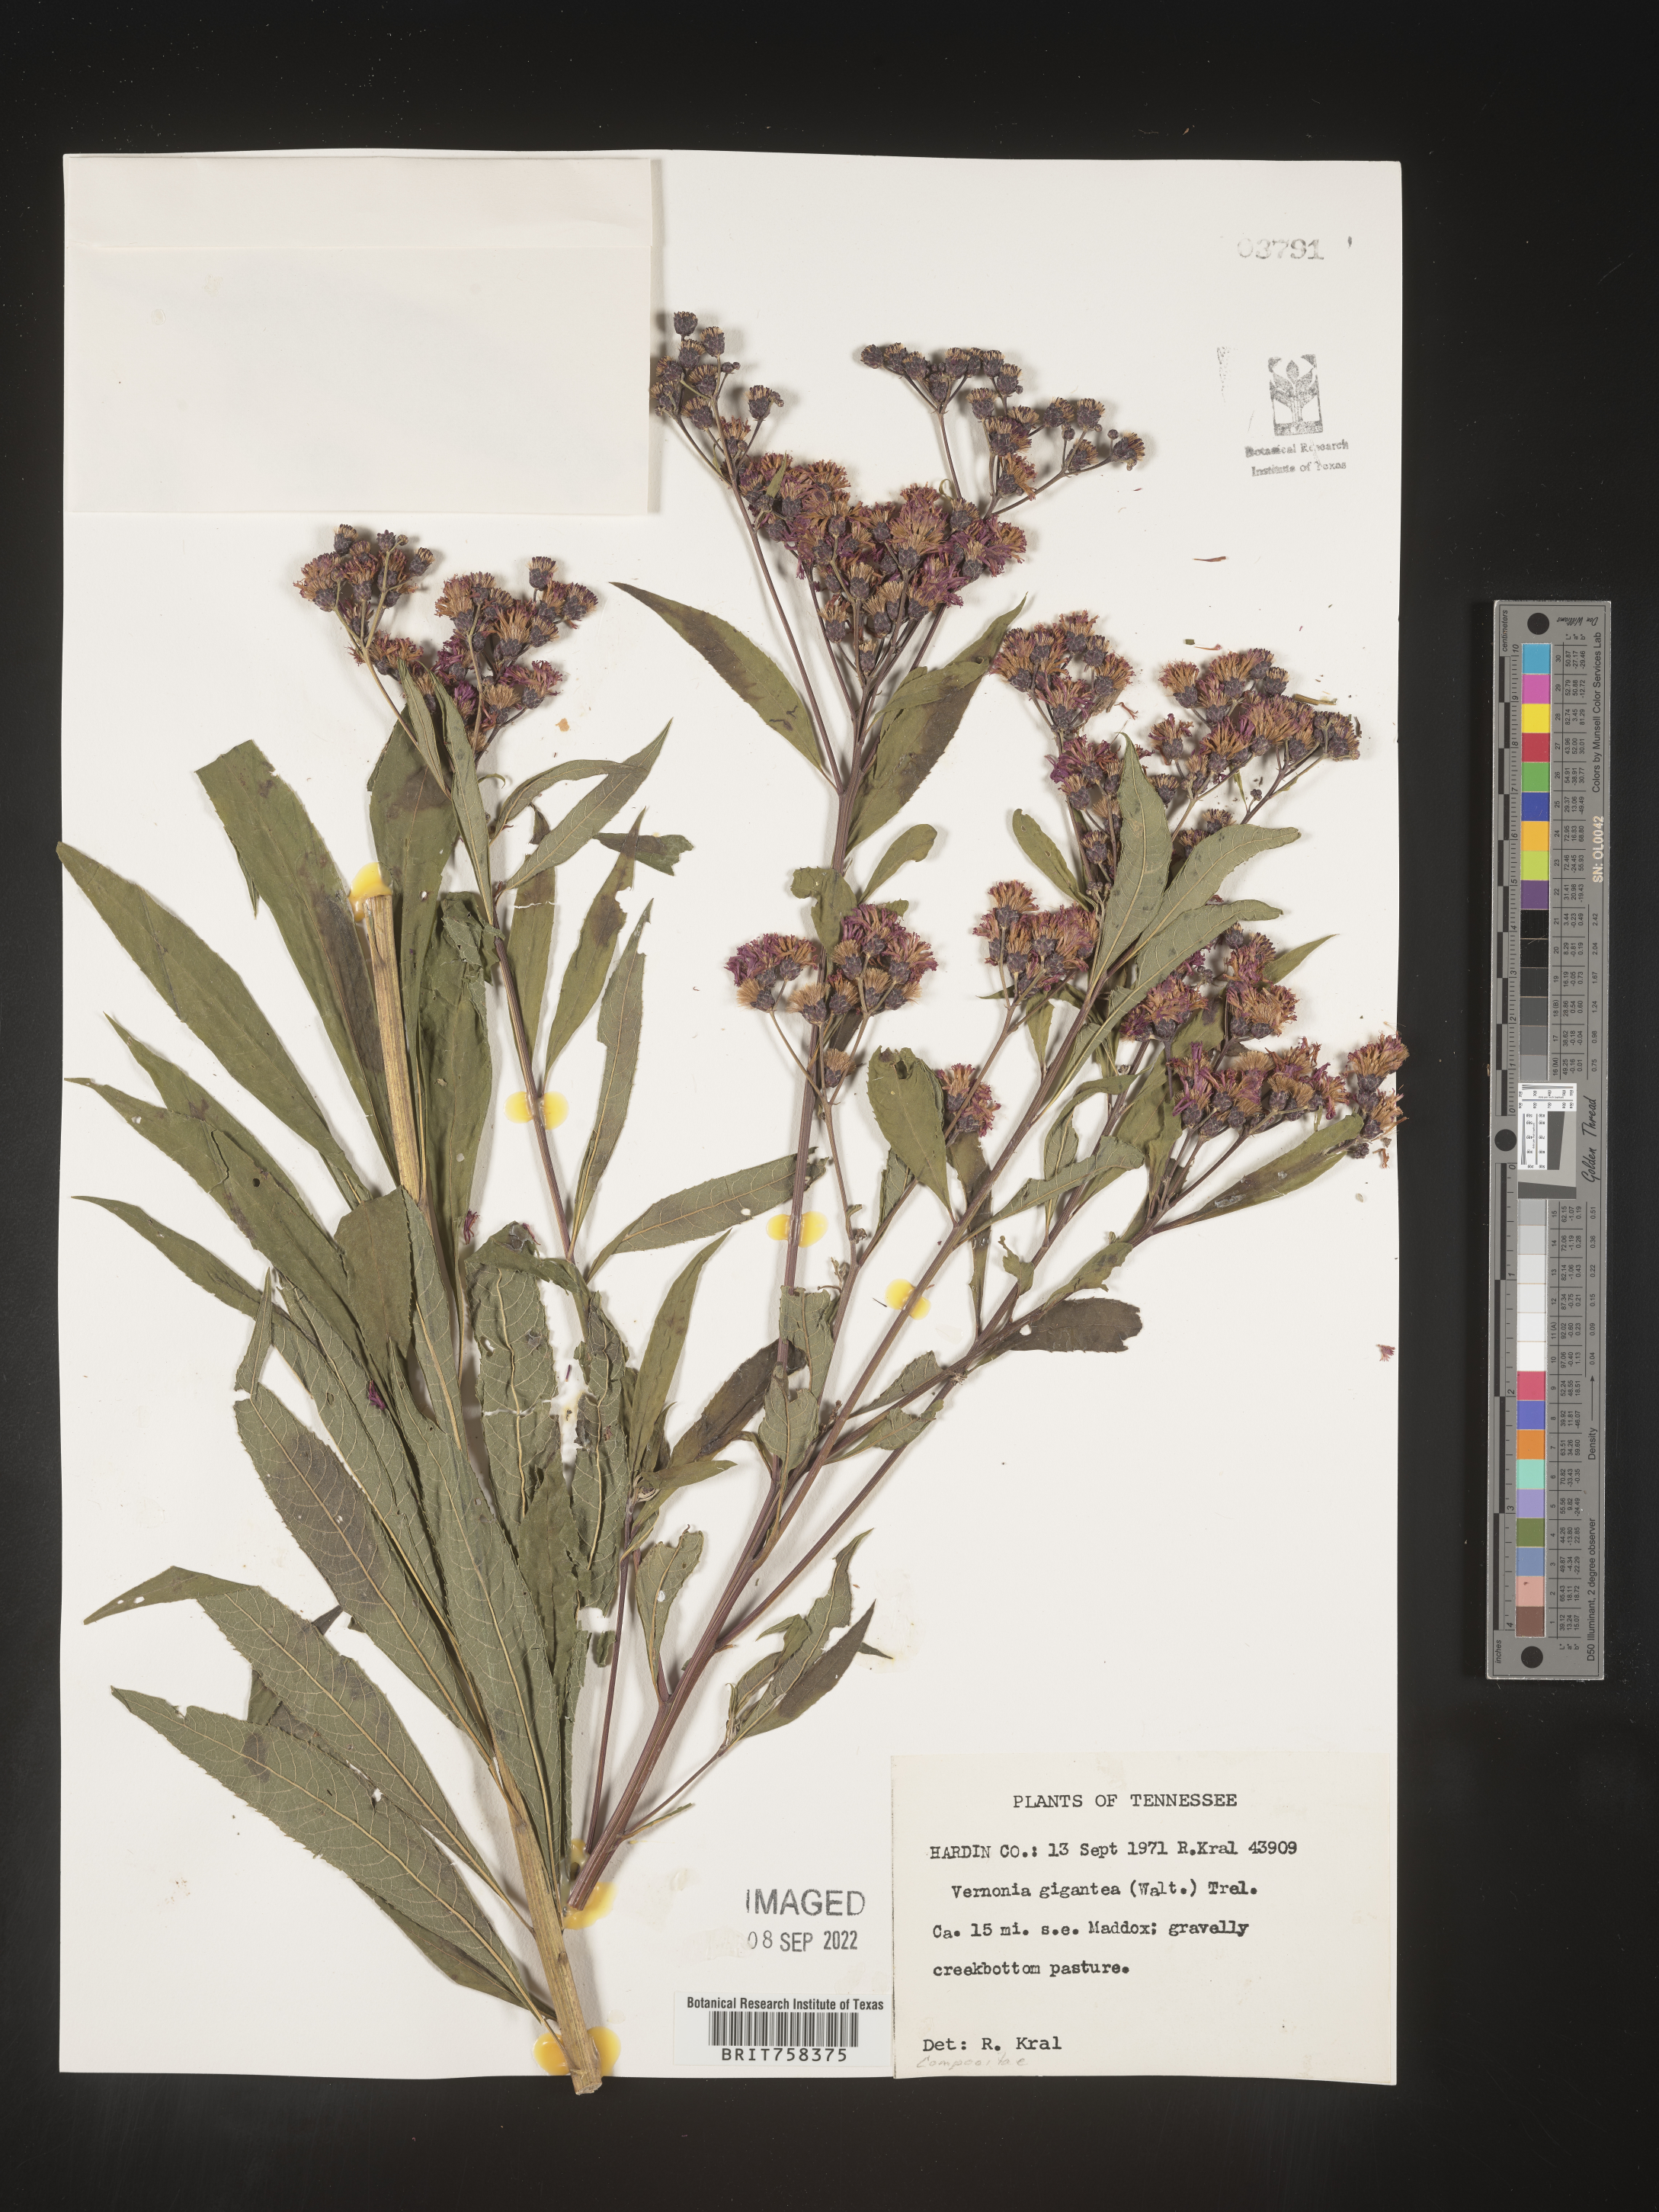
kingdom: Plantae
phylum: Tracheophyta
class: Magnoliopsida
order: Asterales
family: Asteraceae
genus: Vernonia
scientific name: Vernonia gigantea
